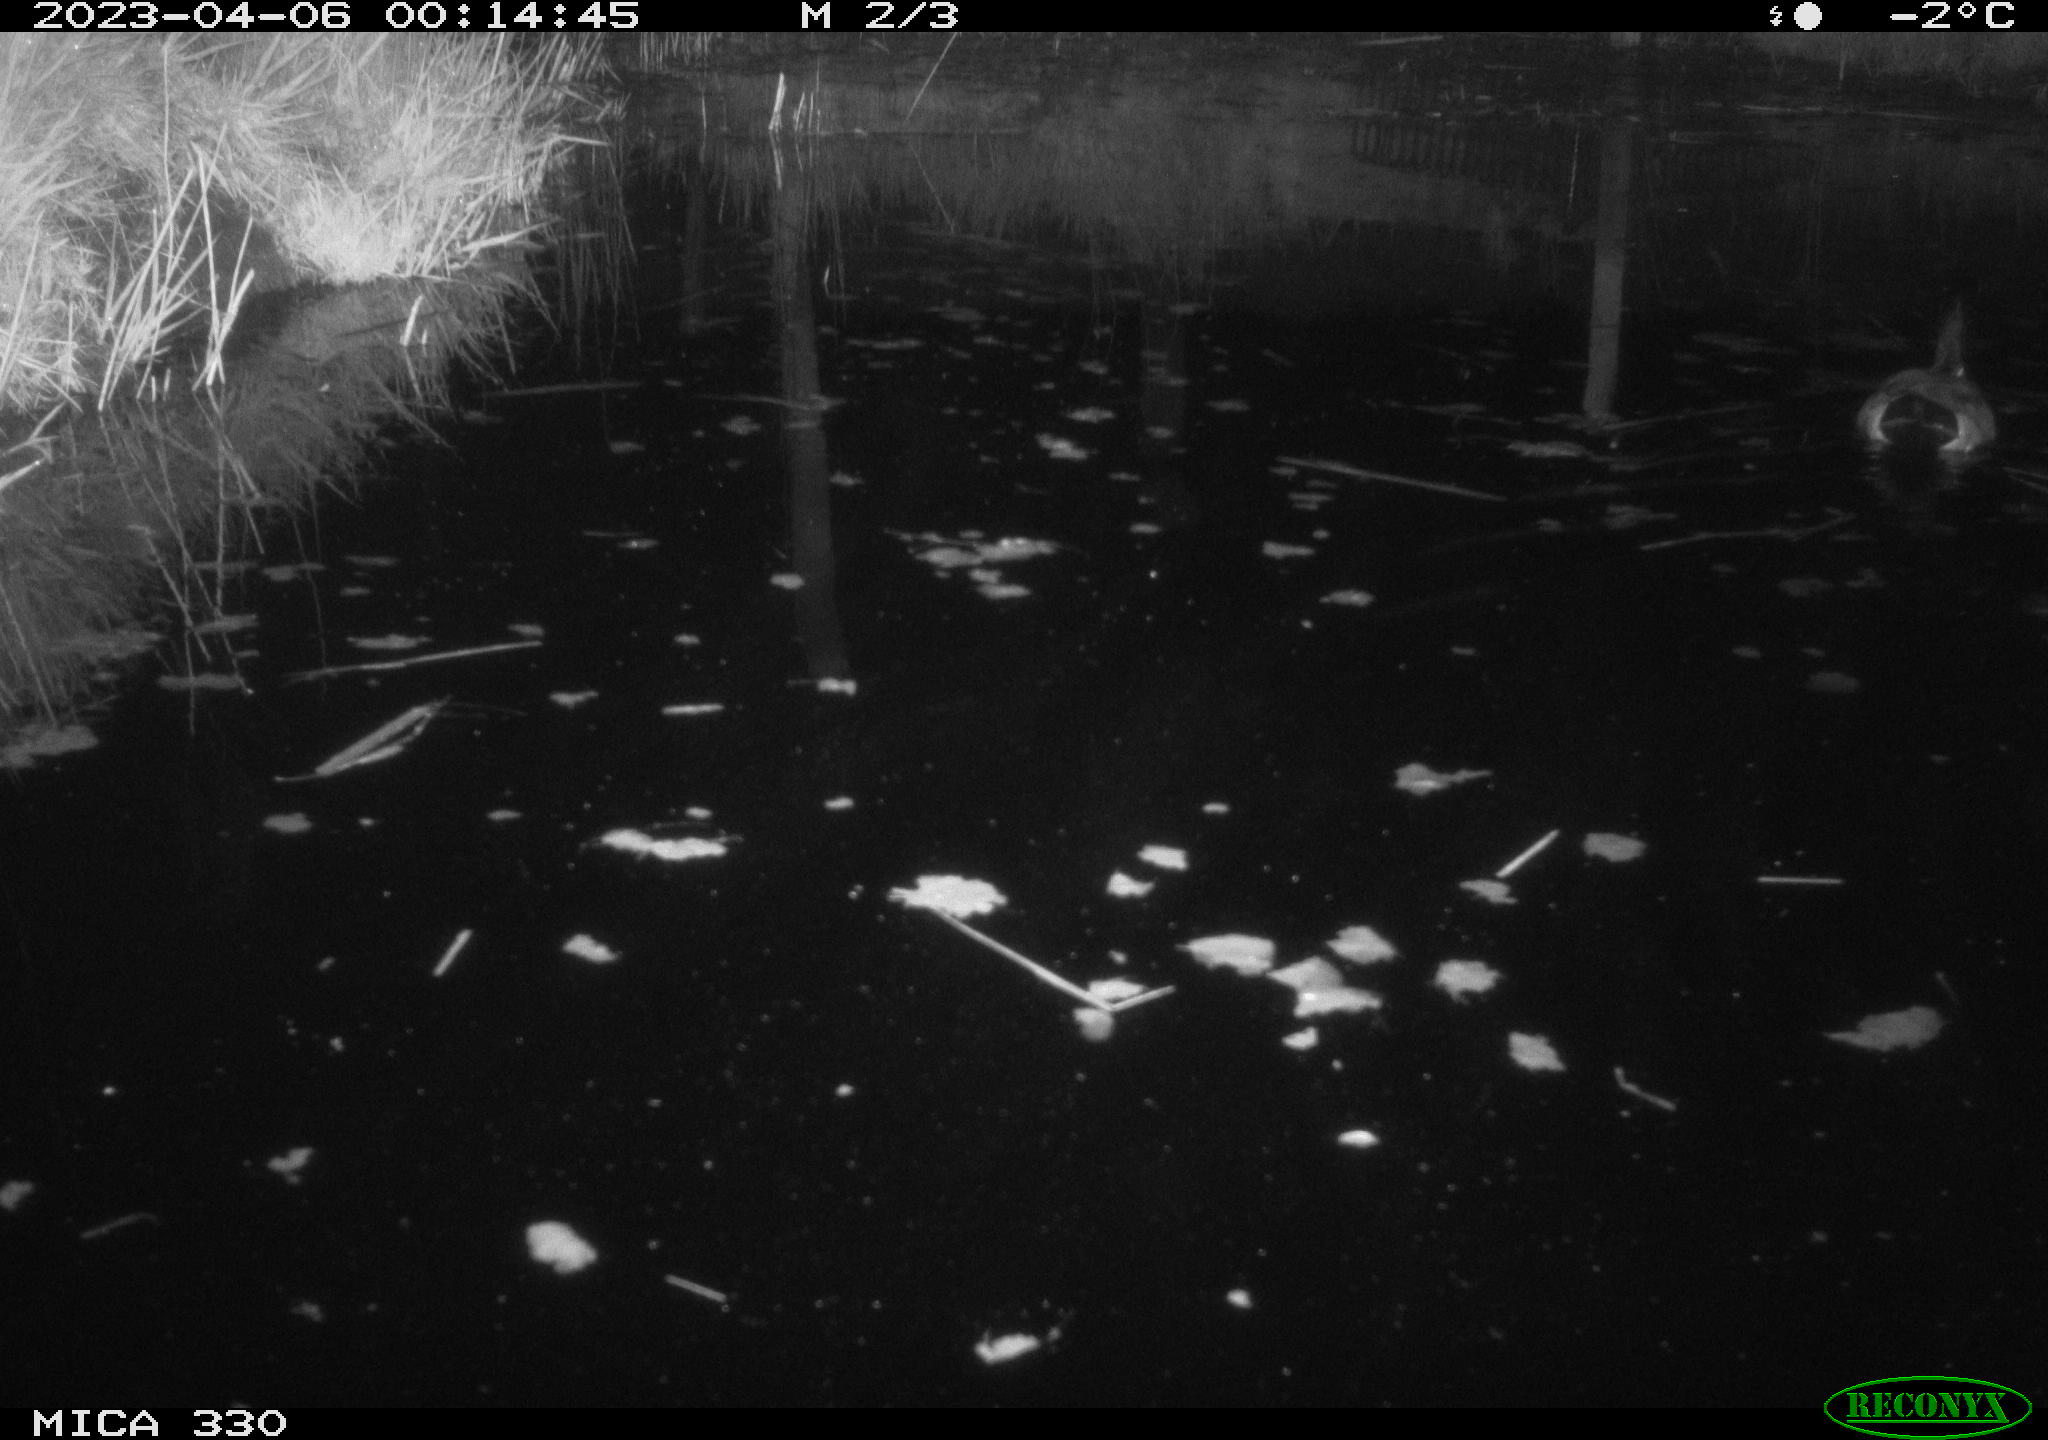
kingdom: Animalia
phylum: Chordata
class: Aves
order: Anseriformes
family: Anatidae
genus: Anas
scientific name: Anas
